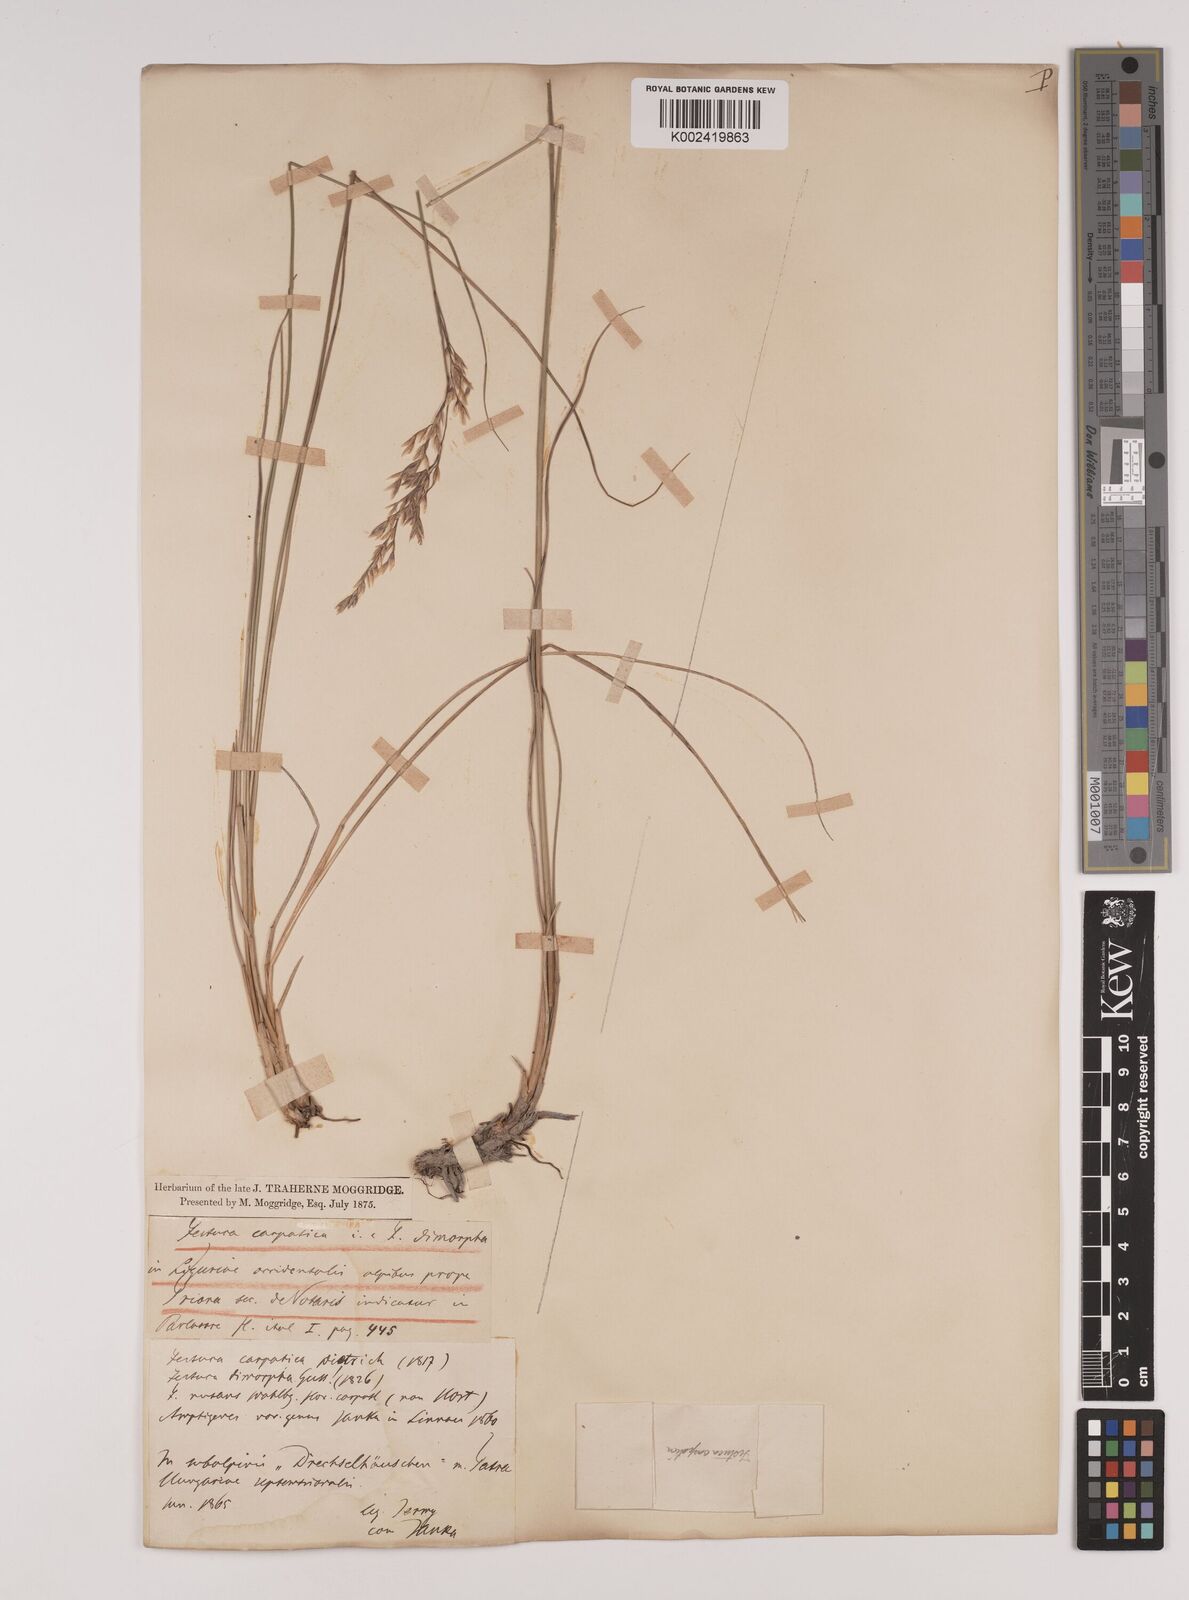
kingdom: Plantae
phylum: Tracheophyta
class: Liliopsida
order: Poales
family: Poaceae
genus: Festuca
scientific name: Festuca dimorpha
